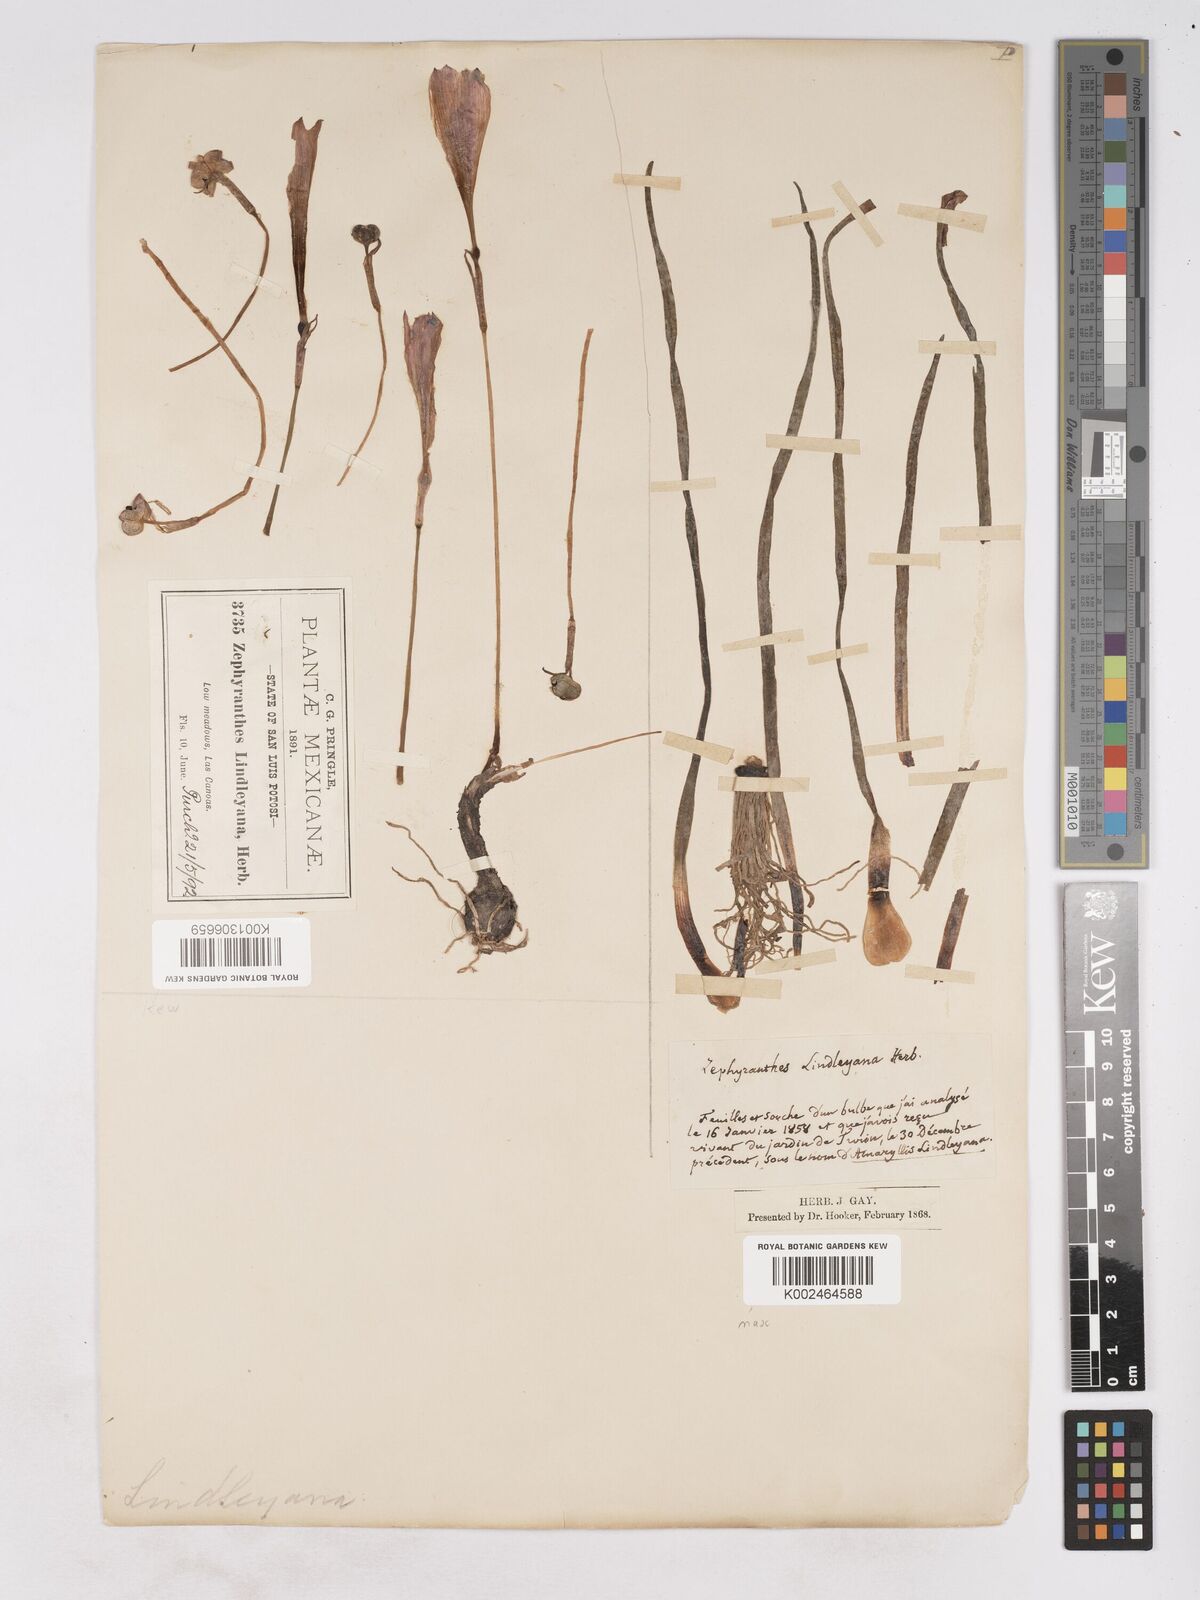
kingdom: Plantae
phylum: Tracheophyta
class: Liliopsida
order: Asparagales
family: Amaryllidaceae
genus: Zephyranthes
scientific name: Zephyranthes lindleyana
